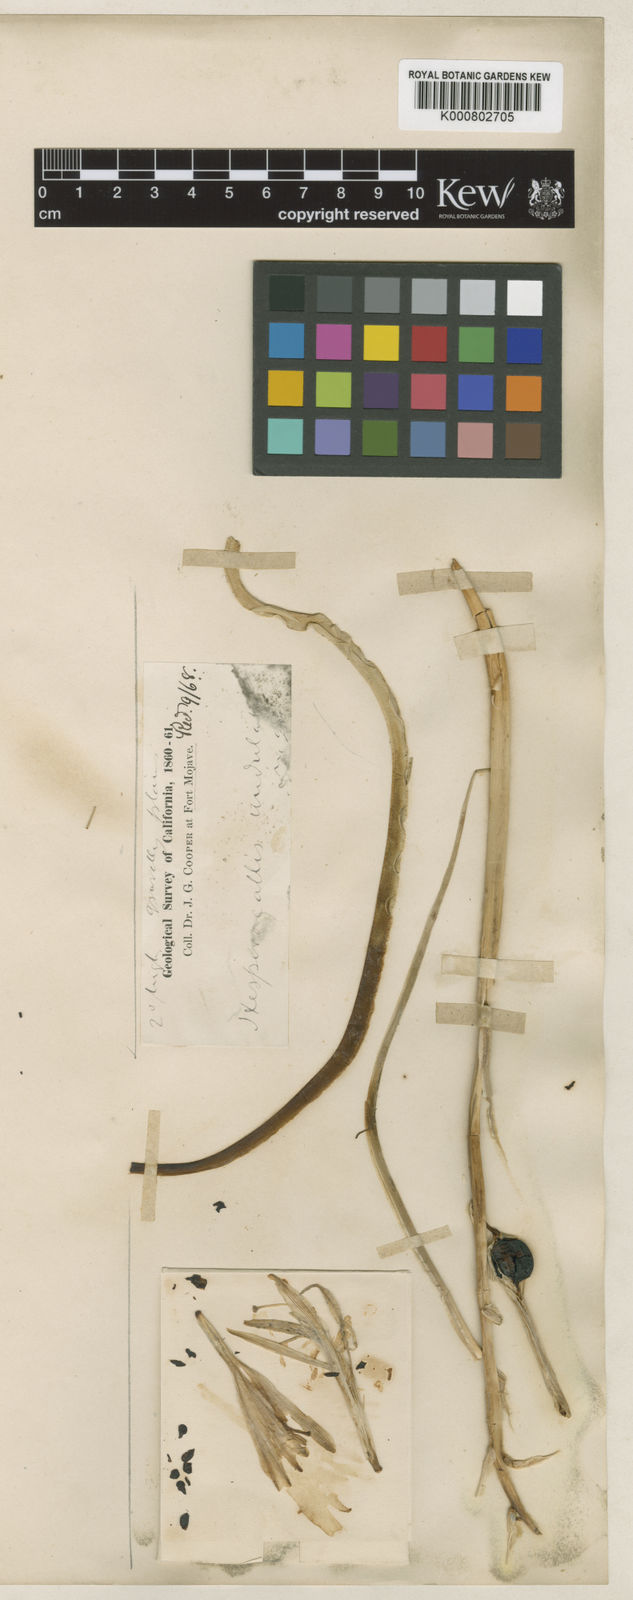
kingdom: Plantae
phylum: Tracheophyta
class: Liliopsida
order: Asparagales
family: Asparagaceae
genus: Hesperocallis
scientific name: Hesperocallis undulata
